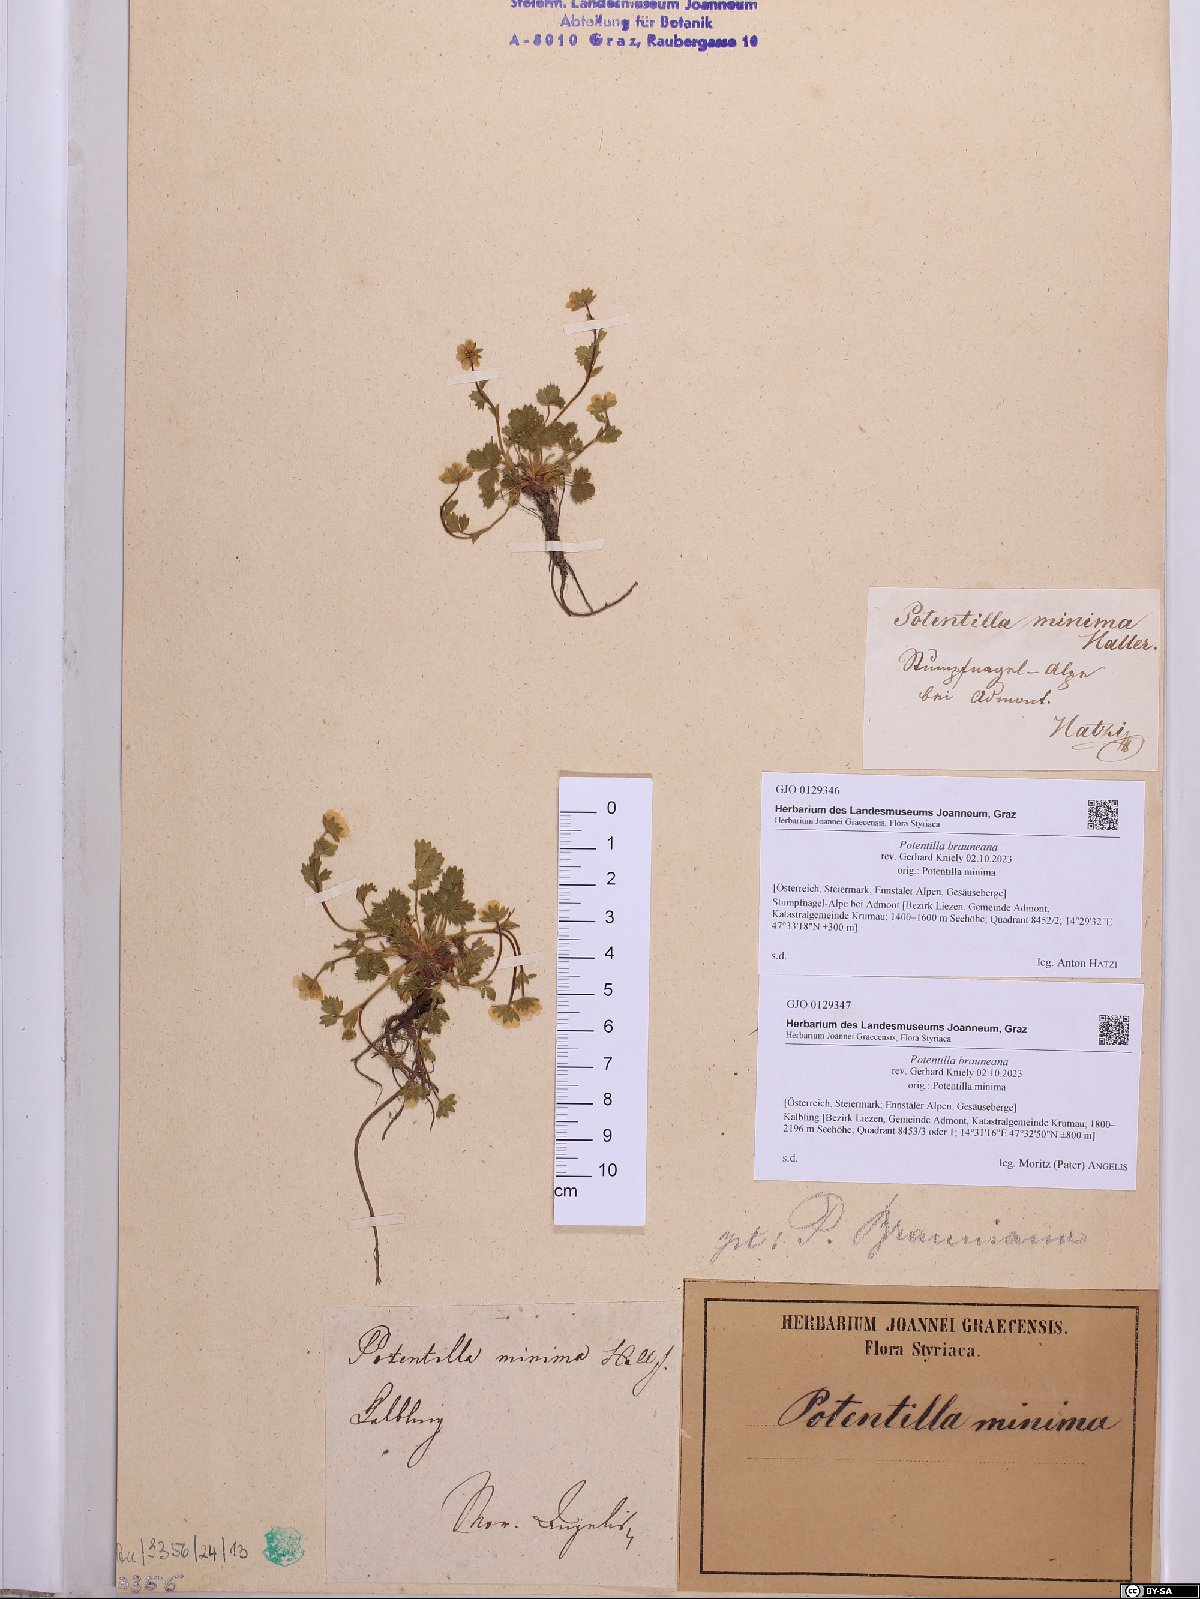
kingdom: Plantae
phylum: Tracheophyta
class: Magnoliopsida
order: Rosales
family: Rosaceae
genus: Potentilla
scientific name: Potentilla brauneana
